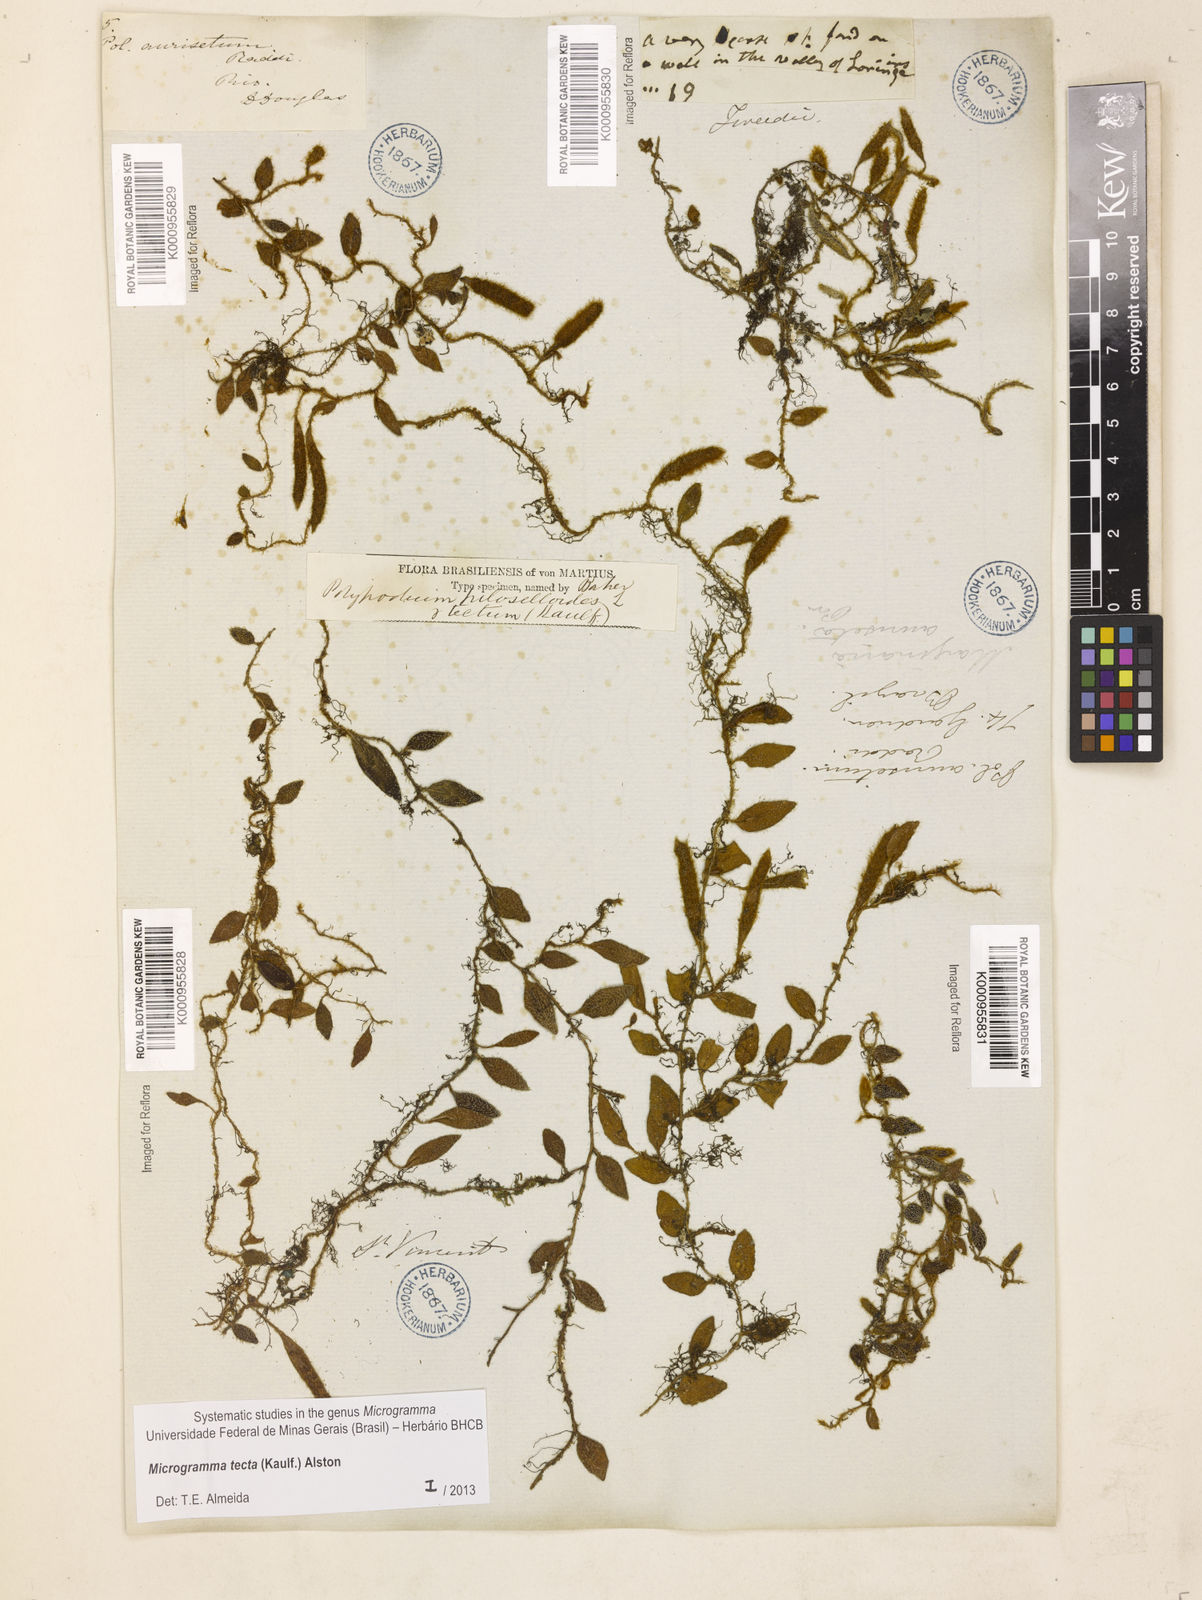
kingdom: Plantae
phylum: Tracheophyta
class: Polypodiopsida
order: Polypodiales
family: Polypodiaceae
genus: Microgramma
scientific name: Microgramma tecta
